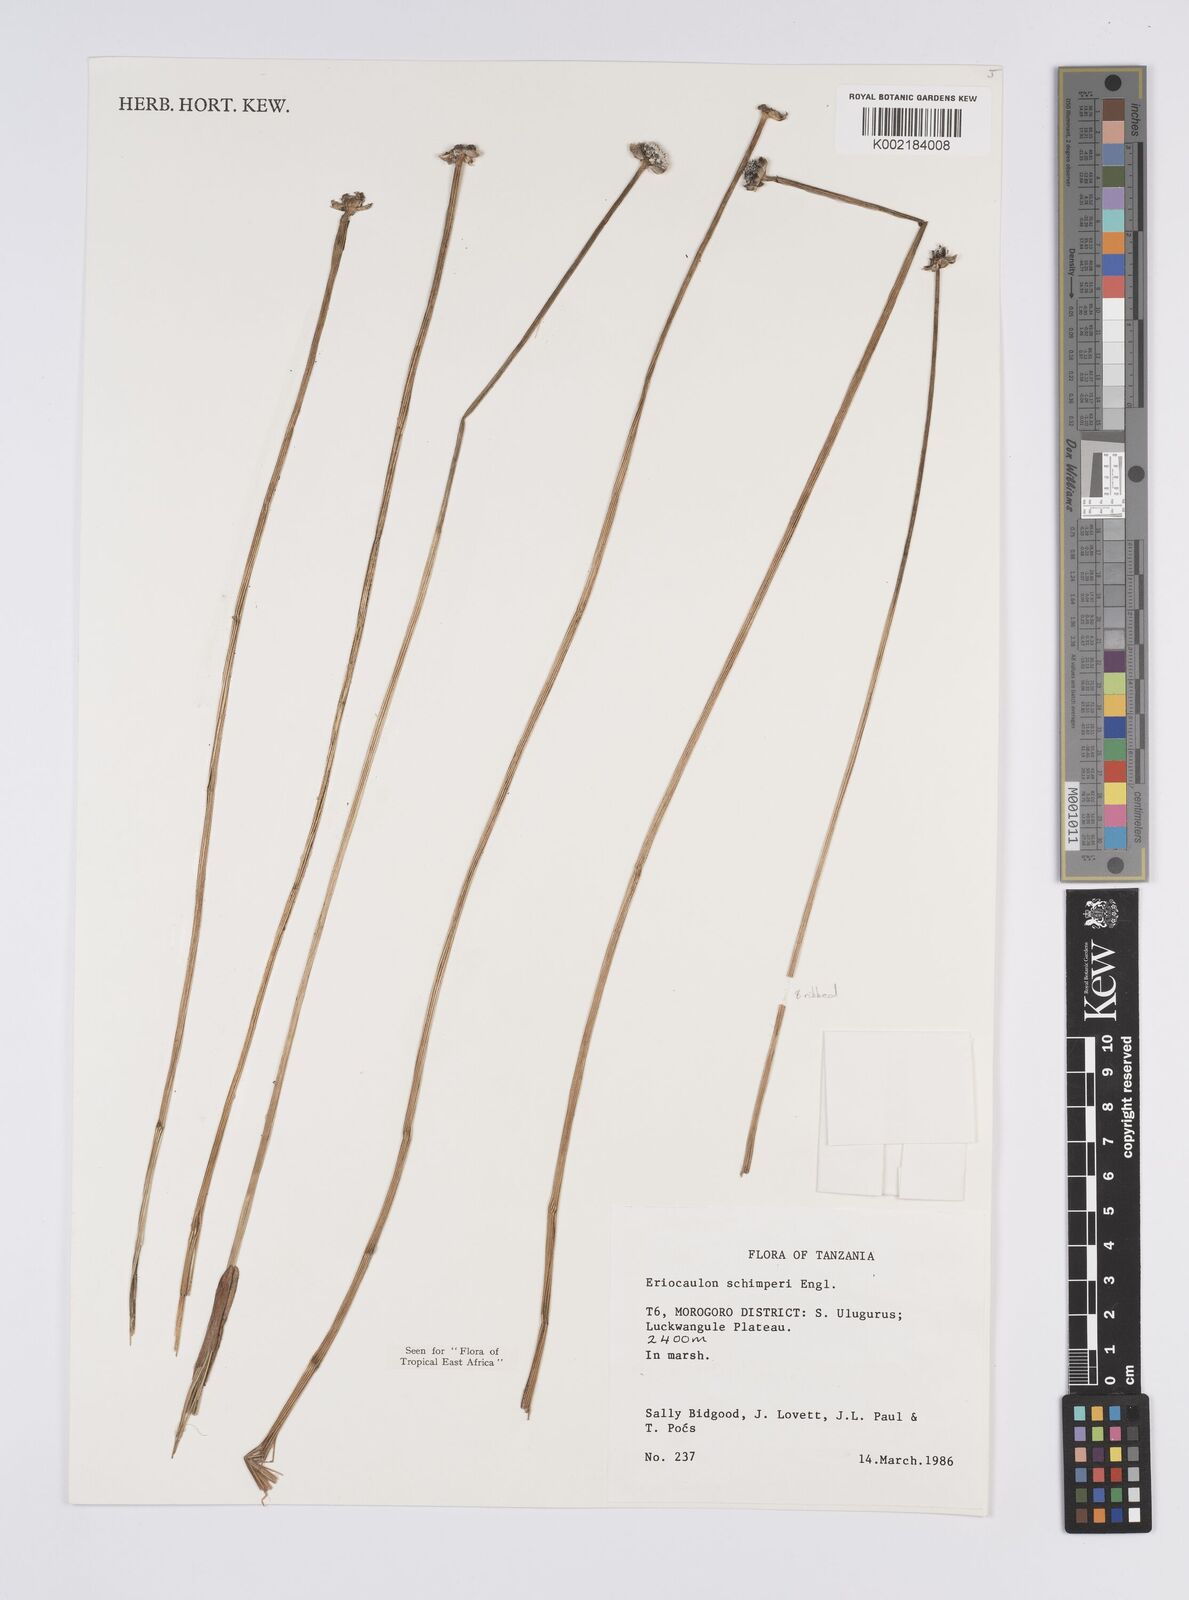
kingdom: Plantae
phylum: Tracheophyta
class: Liliopsida
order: Poales
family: Eriocaulaceae
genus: Eriocaulon
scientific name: Eriocaulon mesanthemoides
